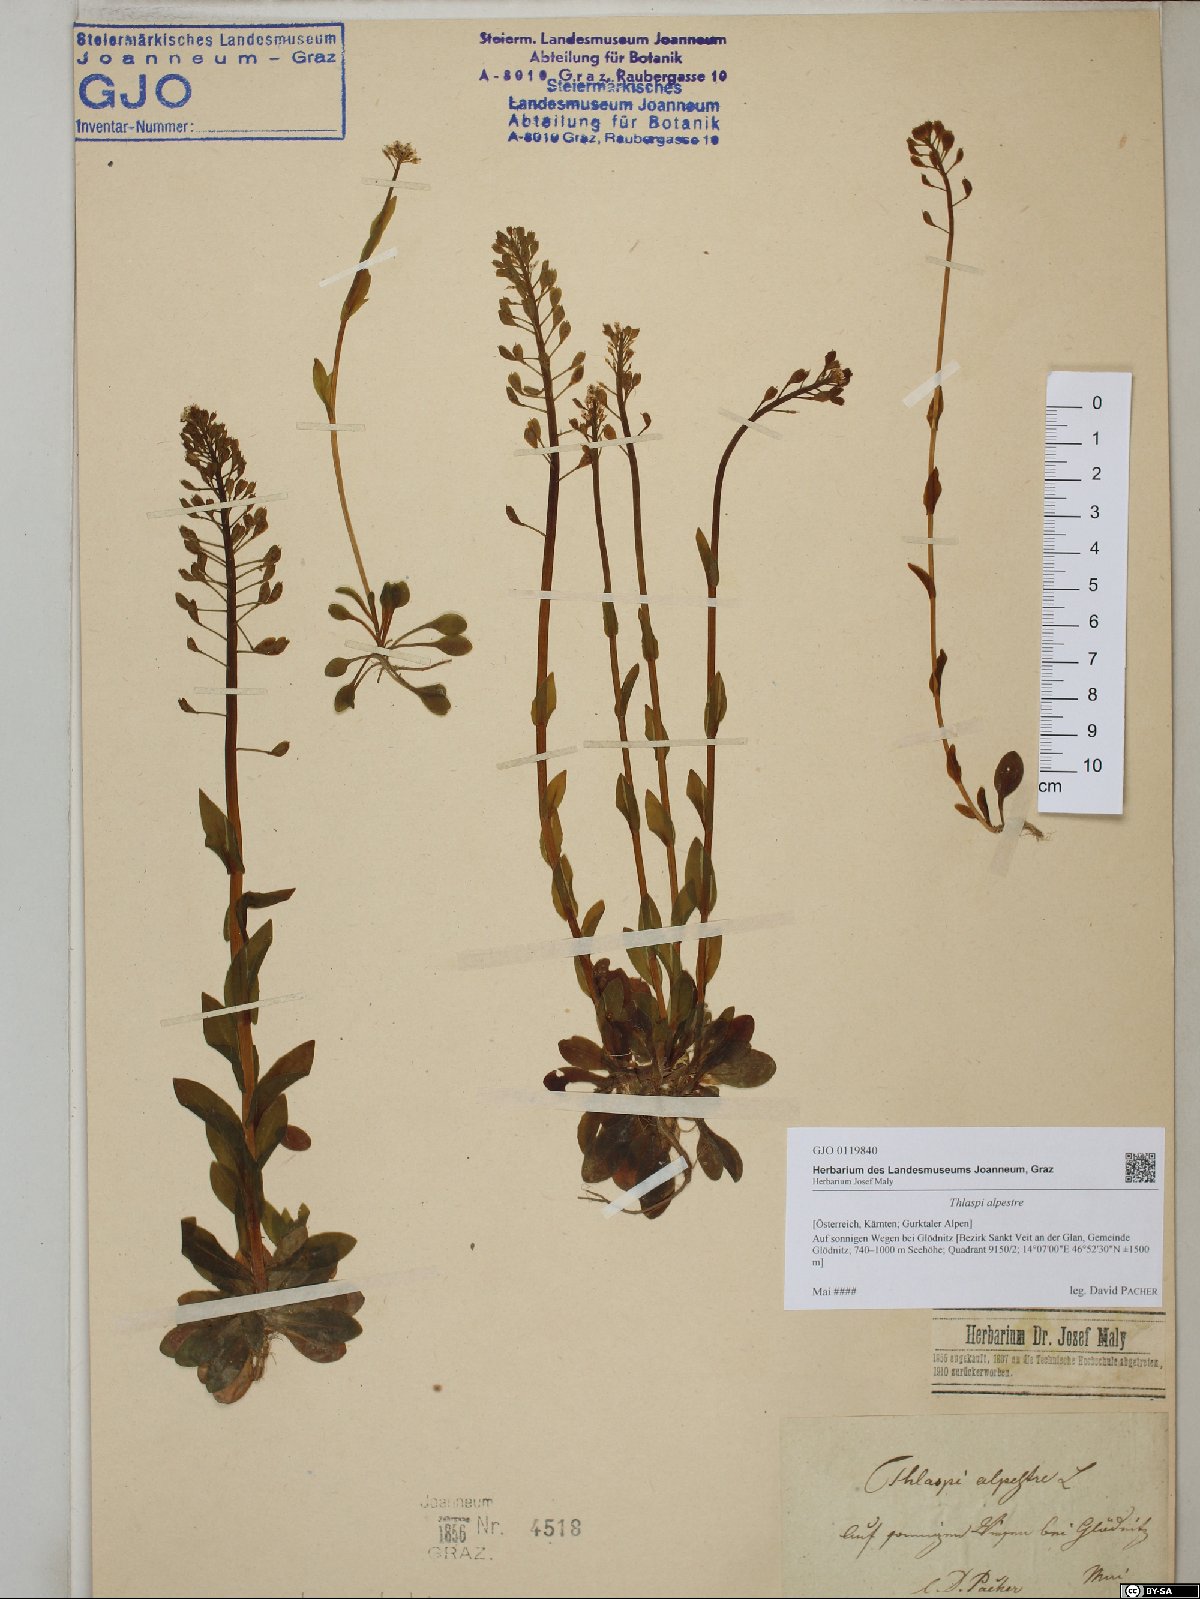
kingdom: Plantae
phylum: Tracheophyta
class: Magnoliopsida
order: Brassicales
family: Brassicaceae
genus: Noccaea
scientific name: Noccaea alpestris
